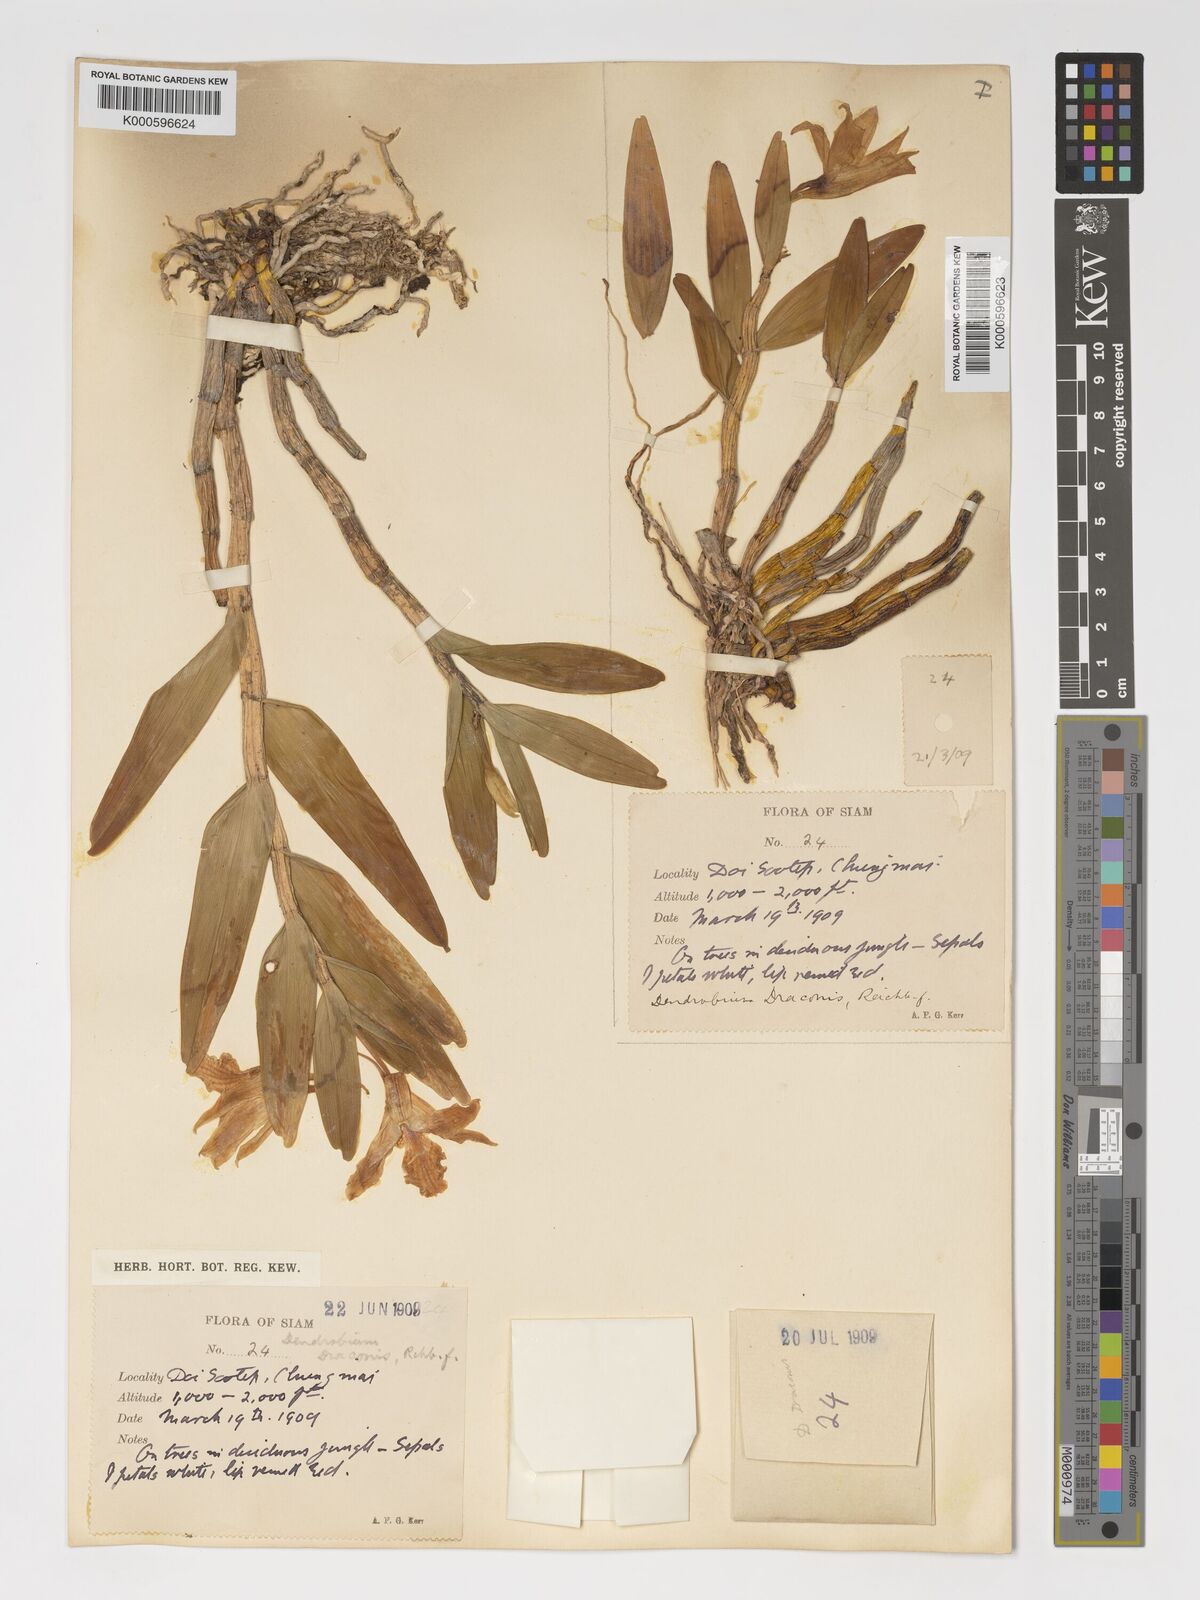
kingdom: Plantae
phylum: Tracheophyta
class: Liliopsida
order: Asparagales
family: Orchidaceae
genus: Dendrobium
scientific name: Dendrobium draconis
